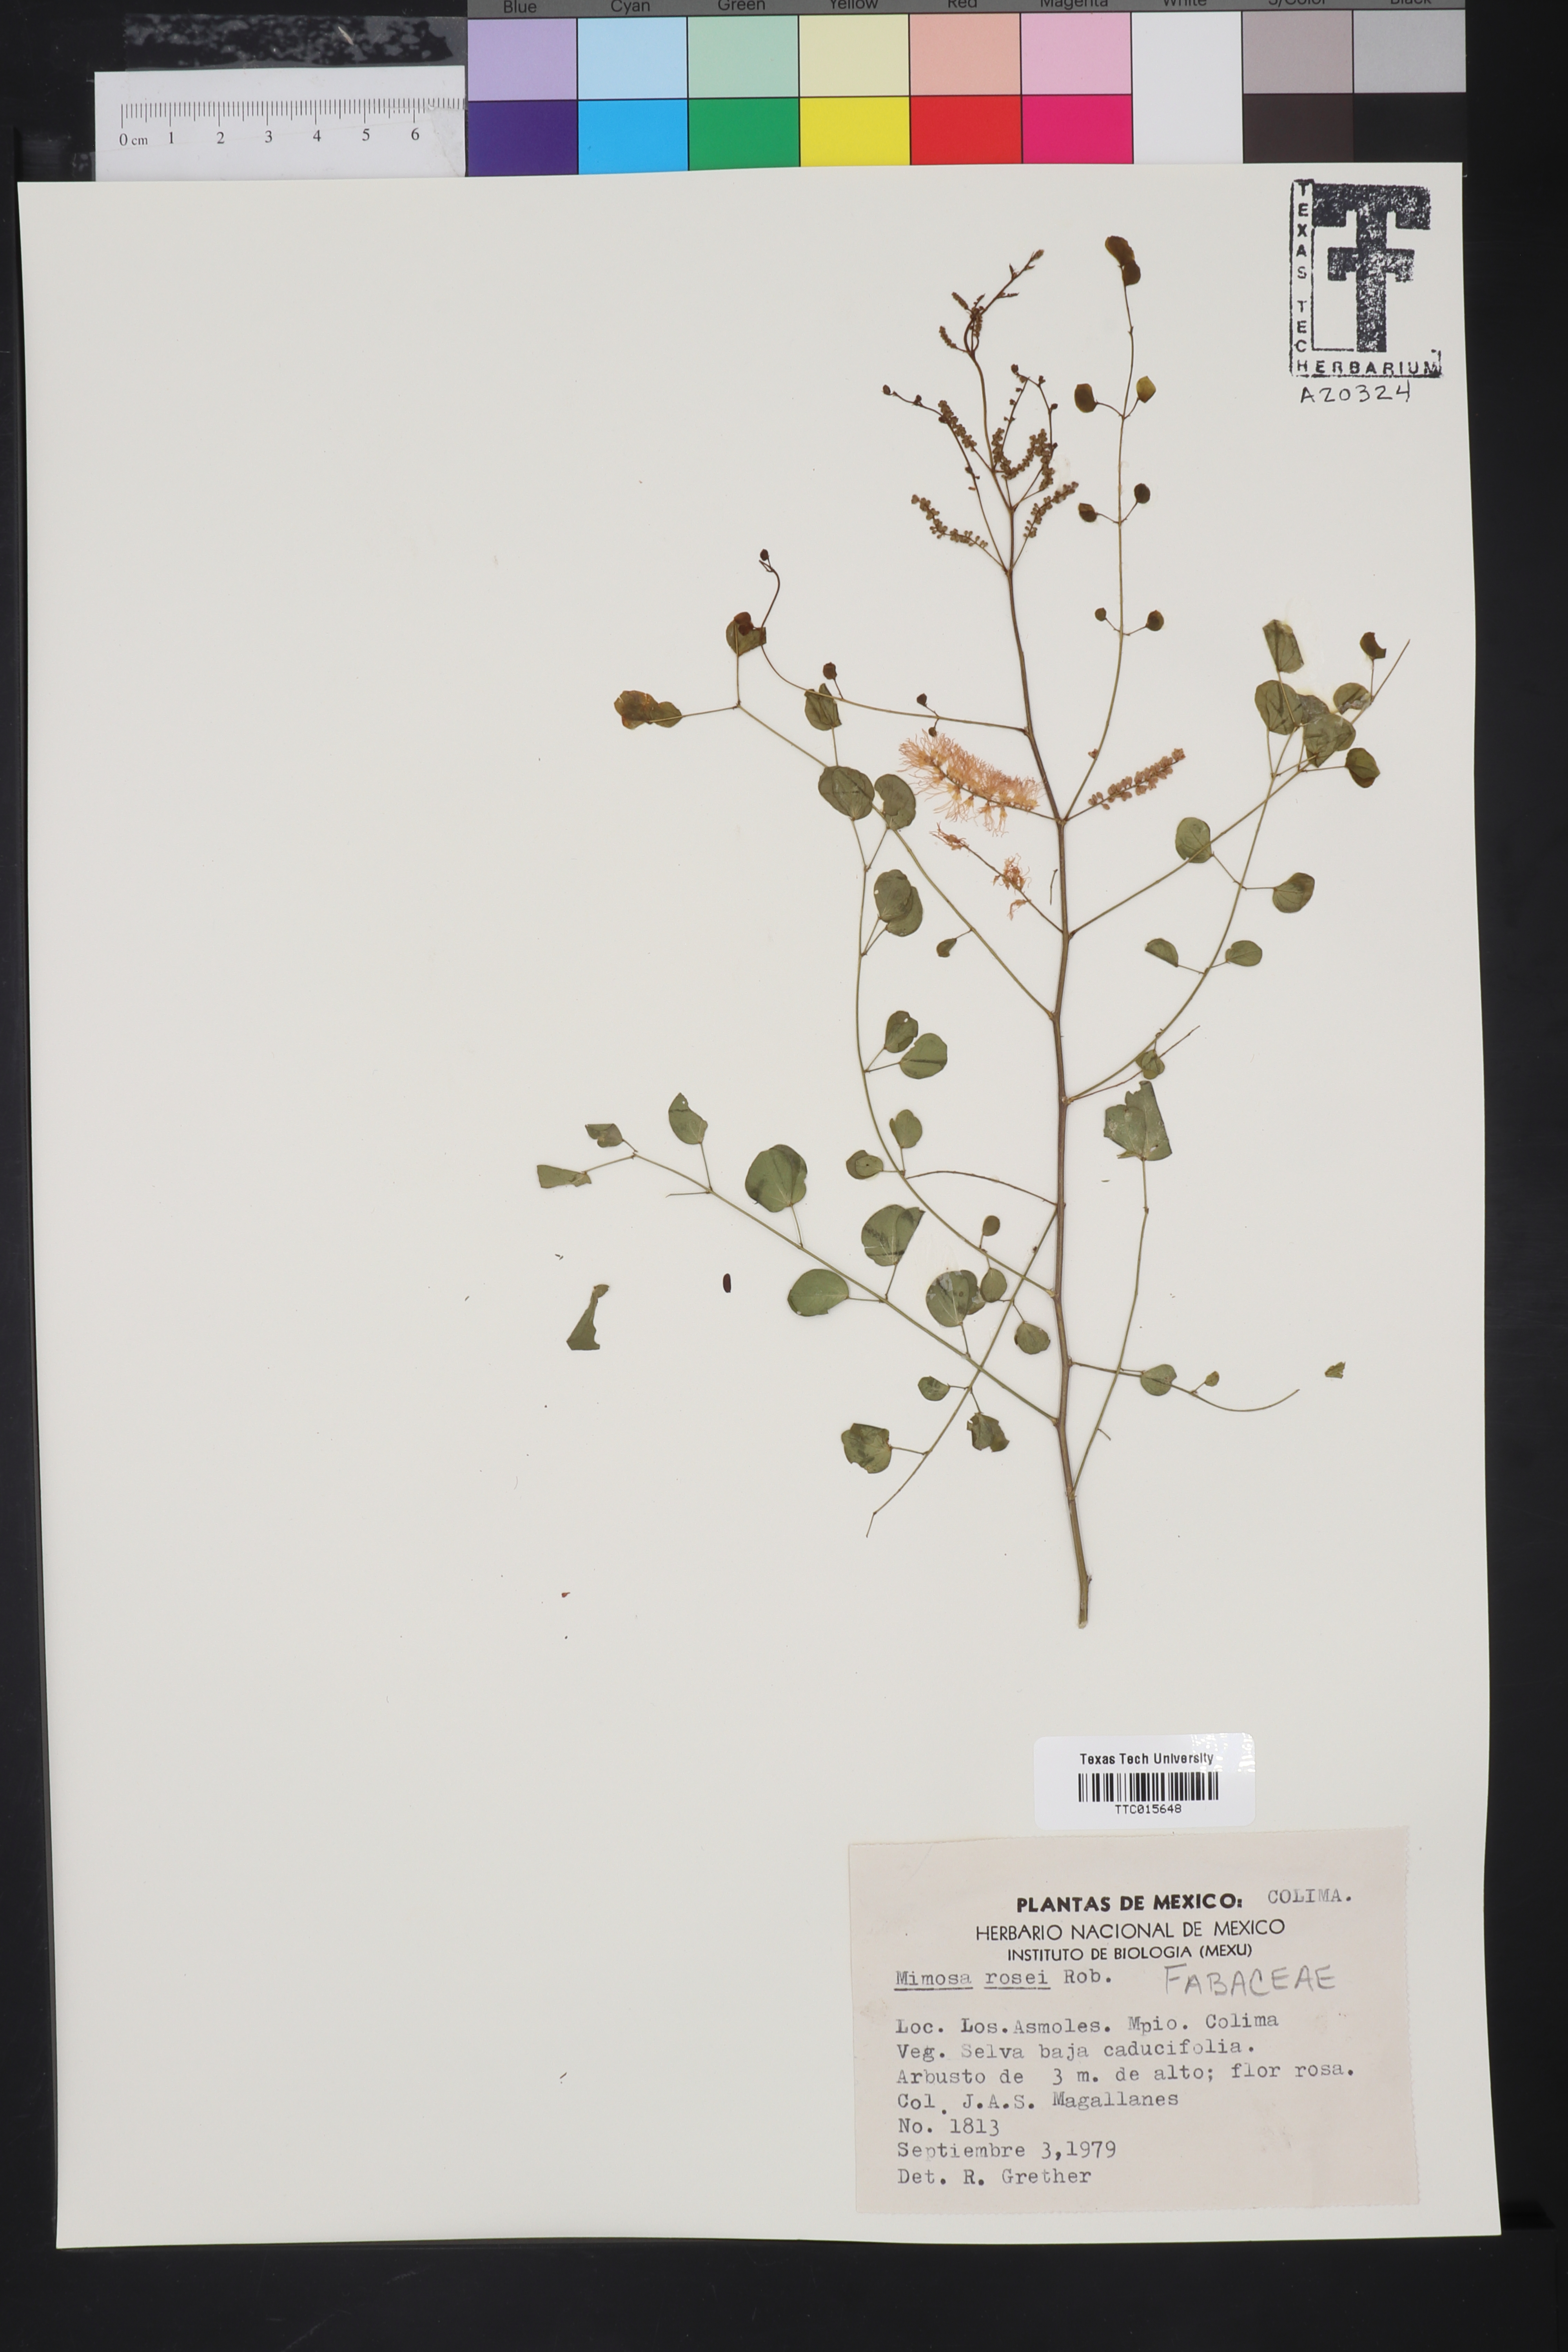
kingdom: Plantae
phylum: Tracheophyta
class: Magnoliopsida
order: Fabales
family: Fabaceae
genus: Mimosa
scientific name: Mimosa rosei
